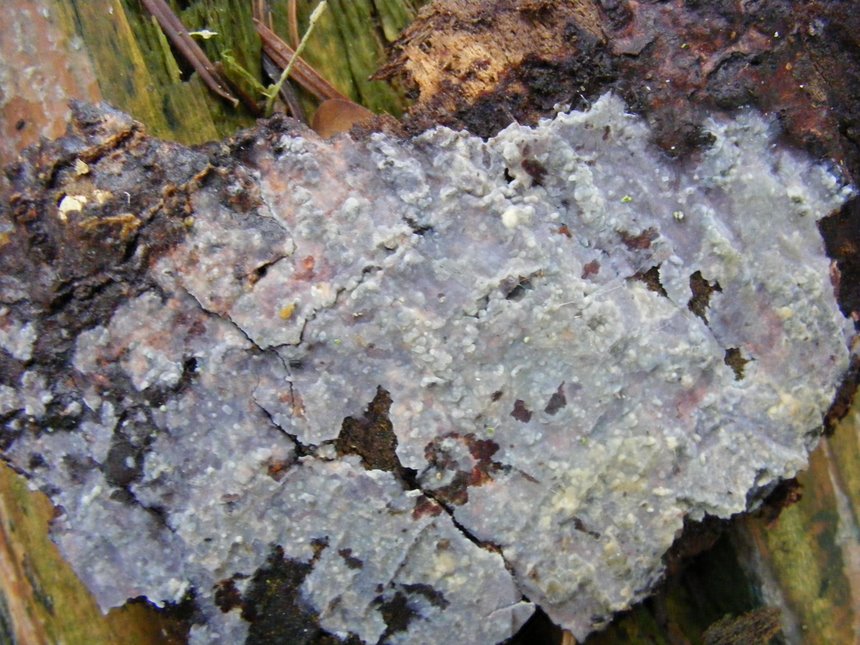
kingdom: Fungi
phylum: Basidiomycota
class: Agaricomycetes
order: Agaricales
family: Radulomycetaceae
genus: Radulomyces
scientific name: Radulomyces confluens
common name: glat naftalinskind
